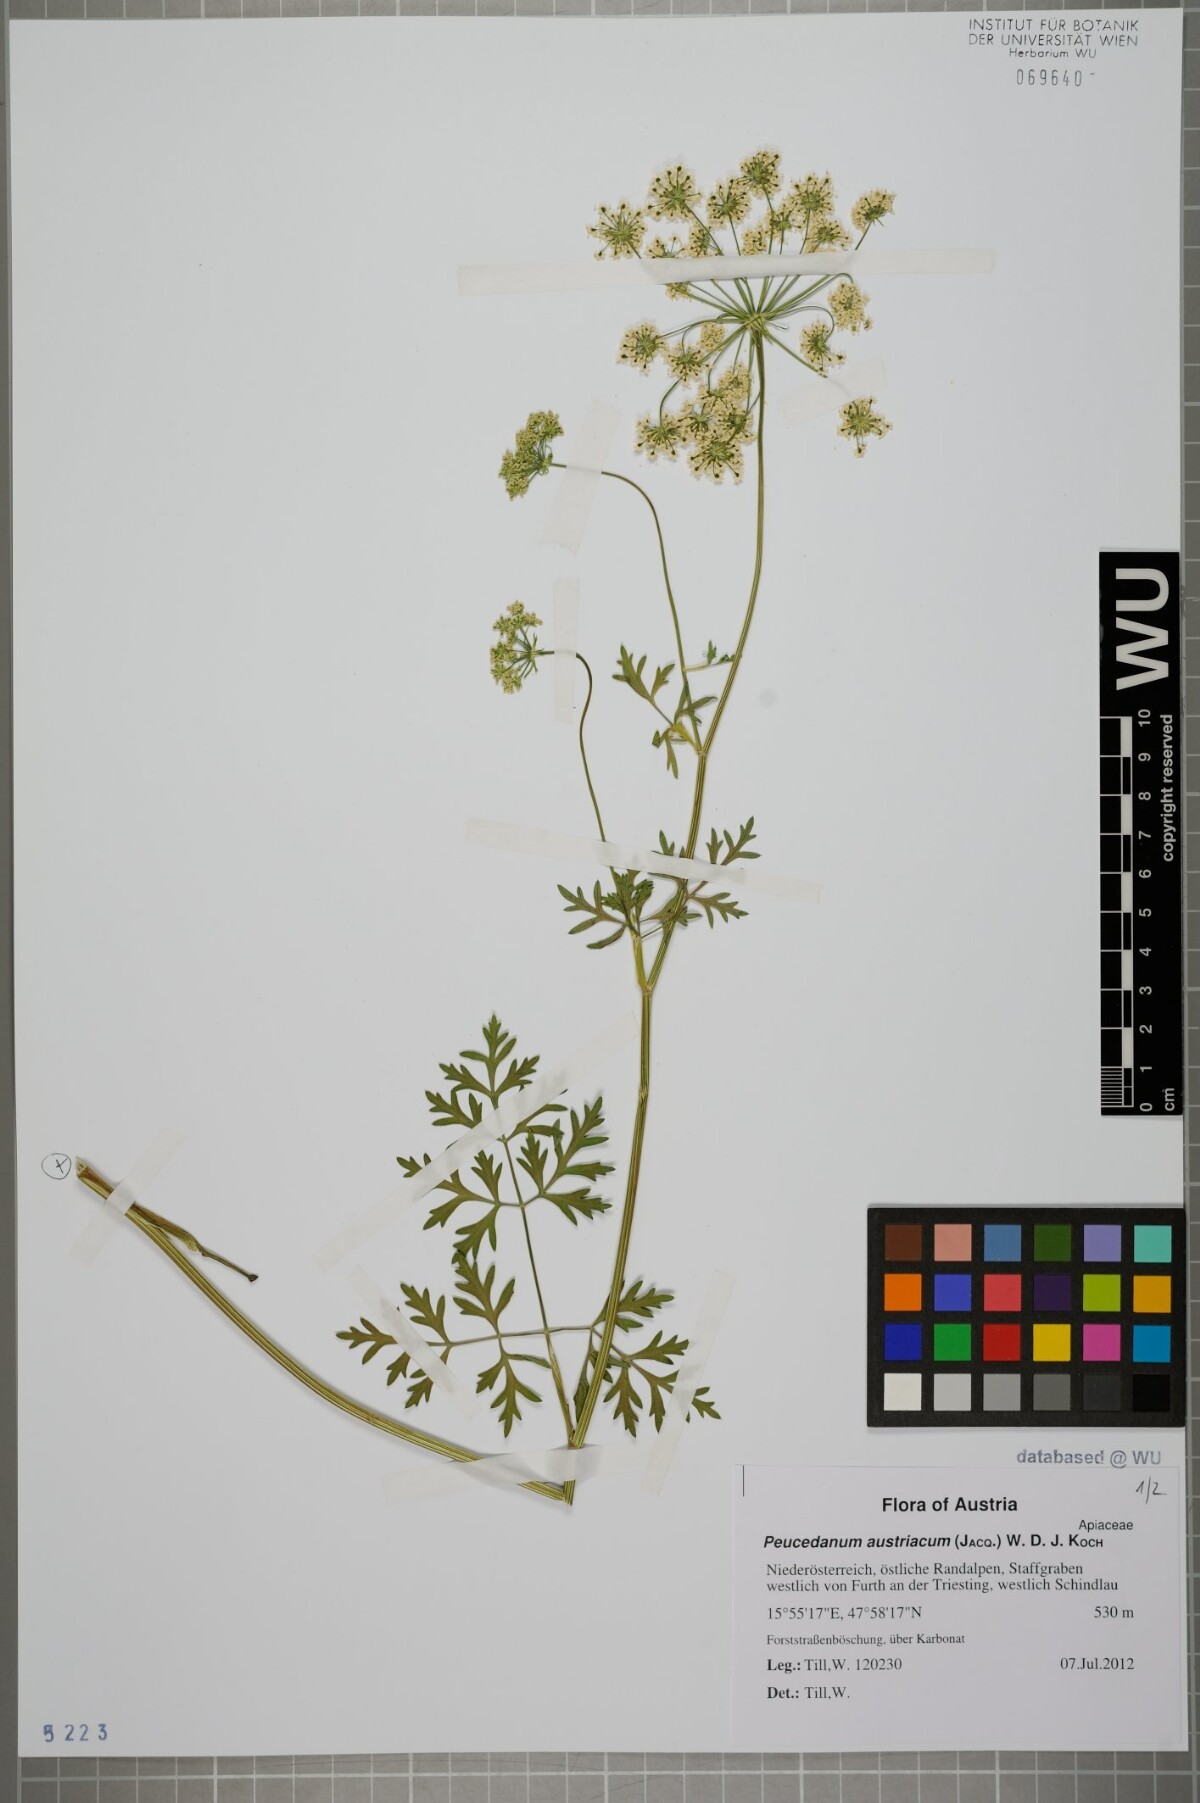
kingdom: Plantae
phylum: Tracheophyta
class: Magnoliopsida
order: Apiales
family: Apiaceae
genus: Peucedanum
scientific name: Peucedanum austriacum
